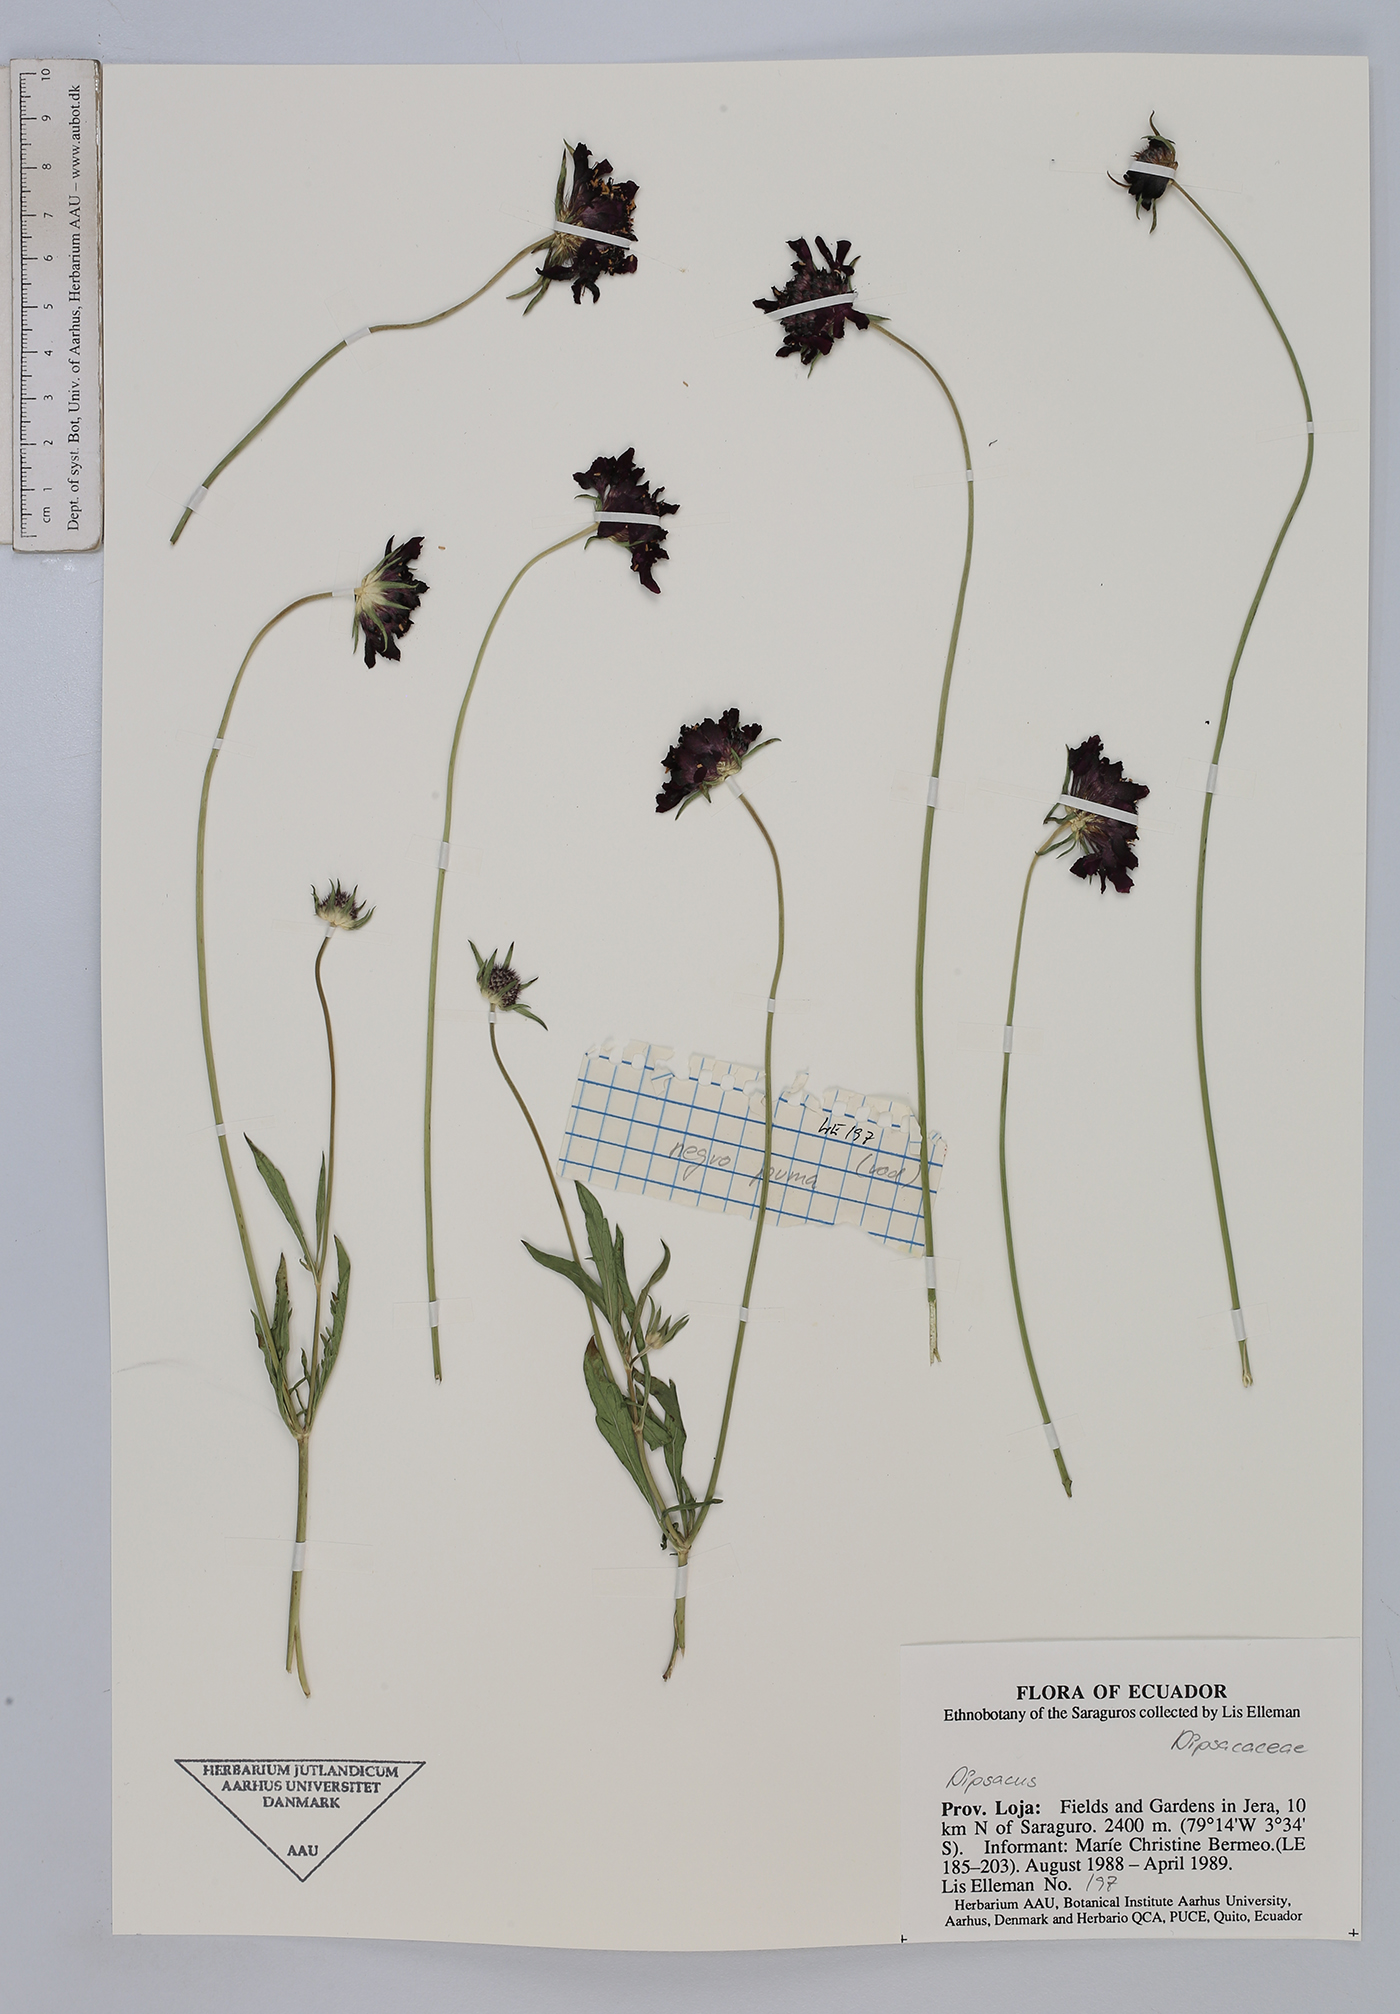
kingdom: Plantae
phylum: Tracheophyta
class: Magnoliopsida
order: Dipsacales
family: Caprifoliaceae
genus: Sixalix
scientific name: Sixalix atropurpurea
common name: Sweet scabious
